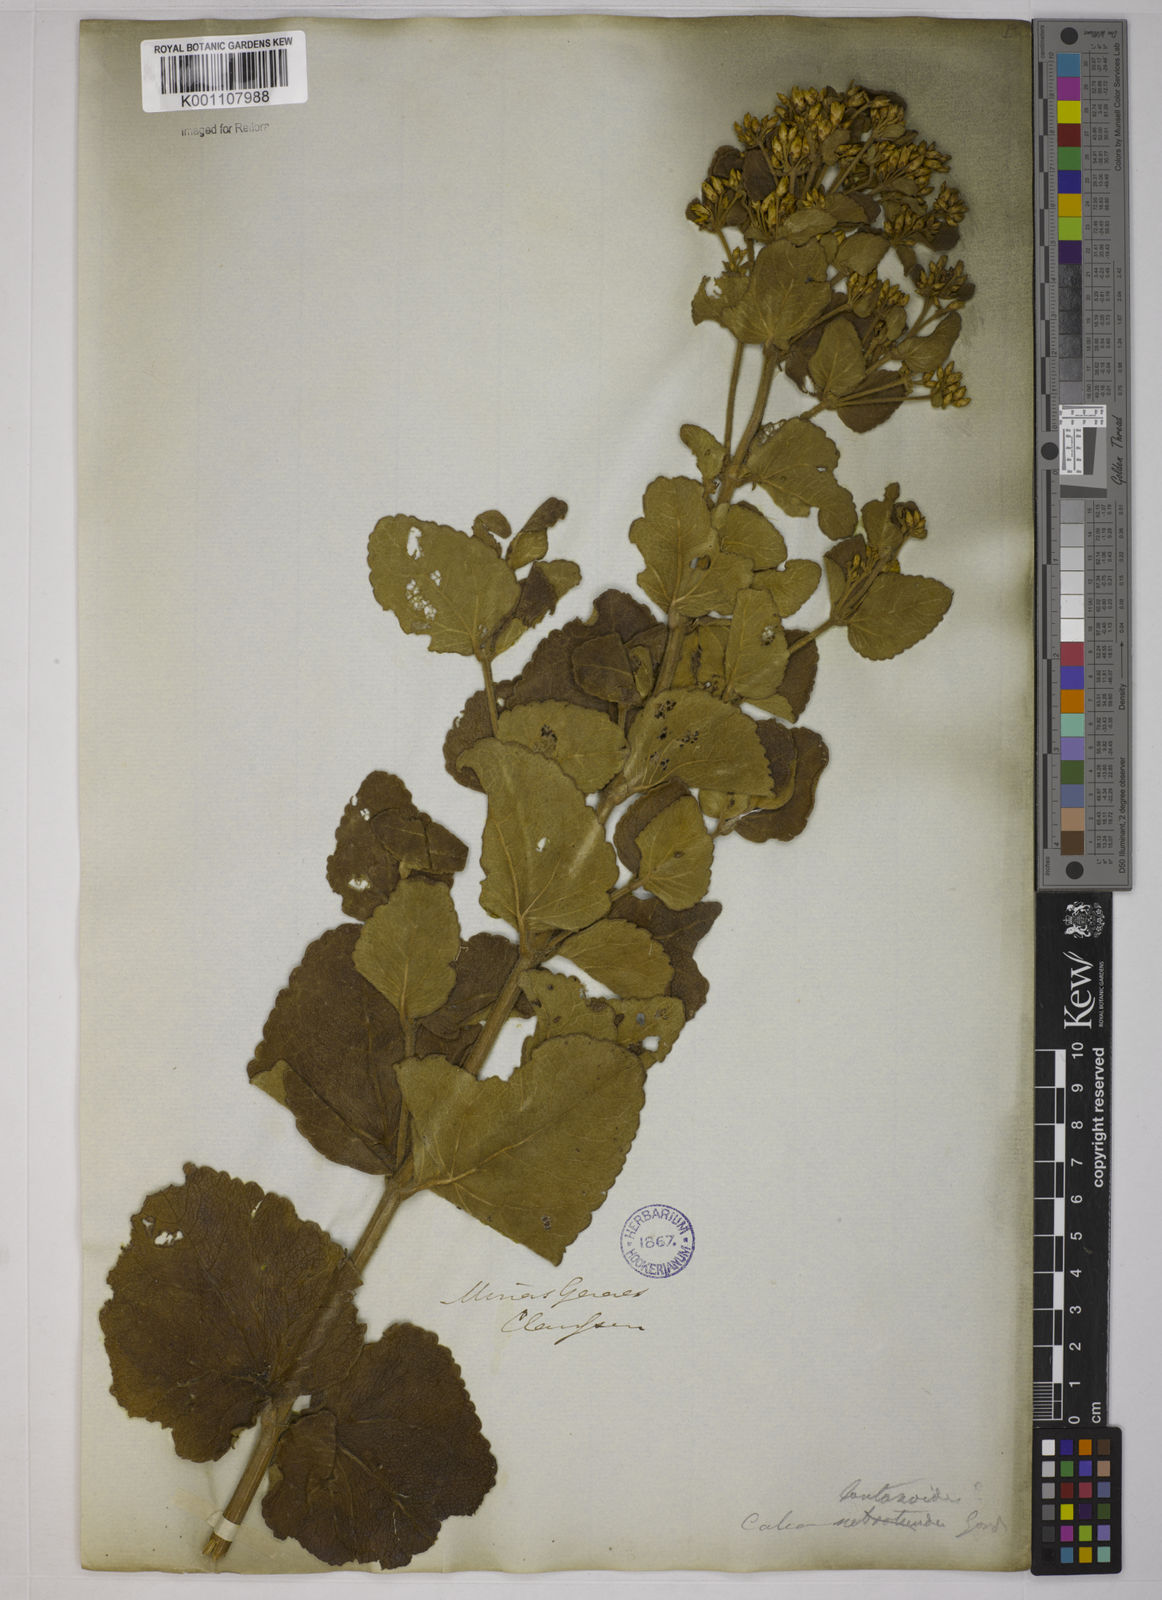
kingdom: Plantae
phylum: Tracheophyta
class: Magnoliopsida
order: Asterales
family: Asteraceae
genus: Calea
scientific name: Calea lantanoides
